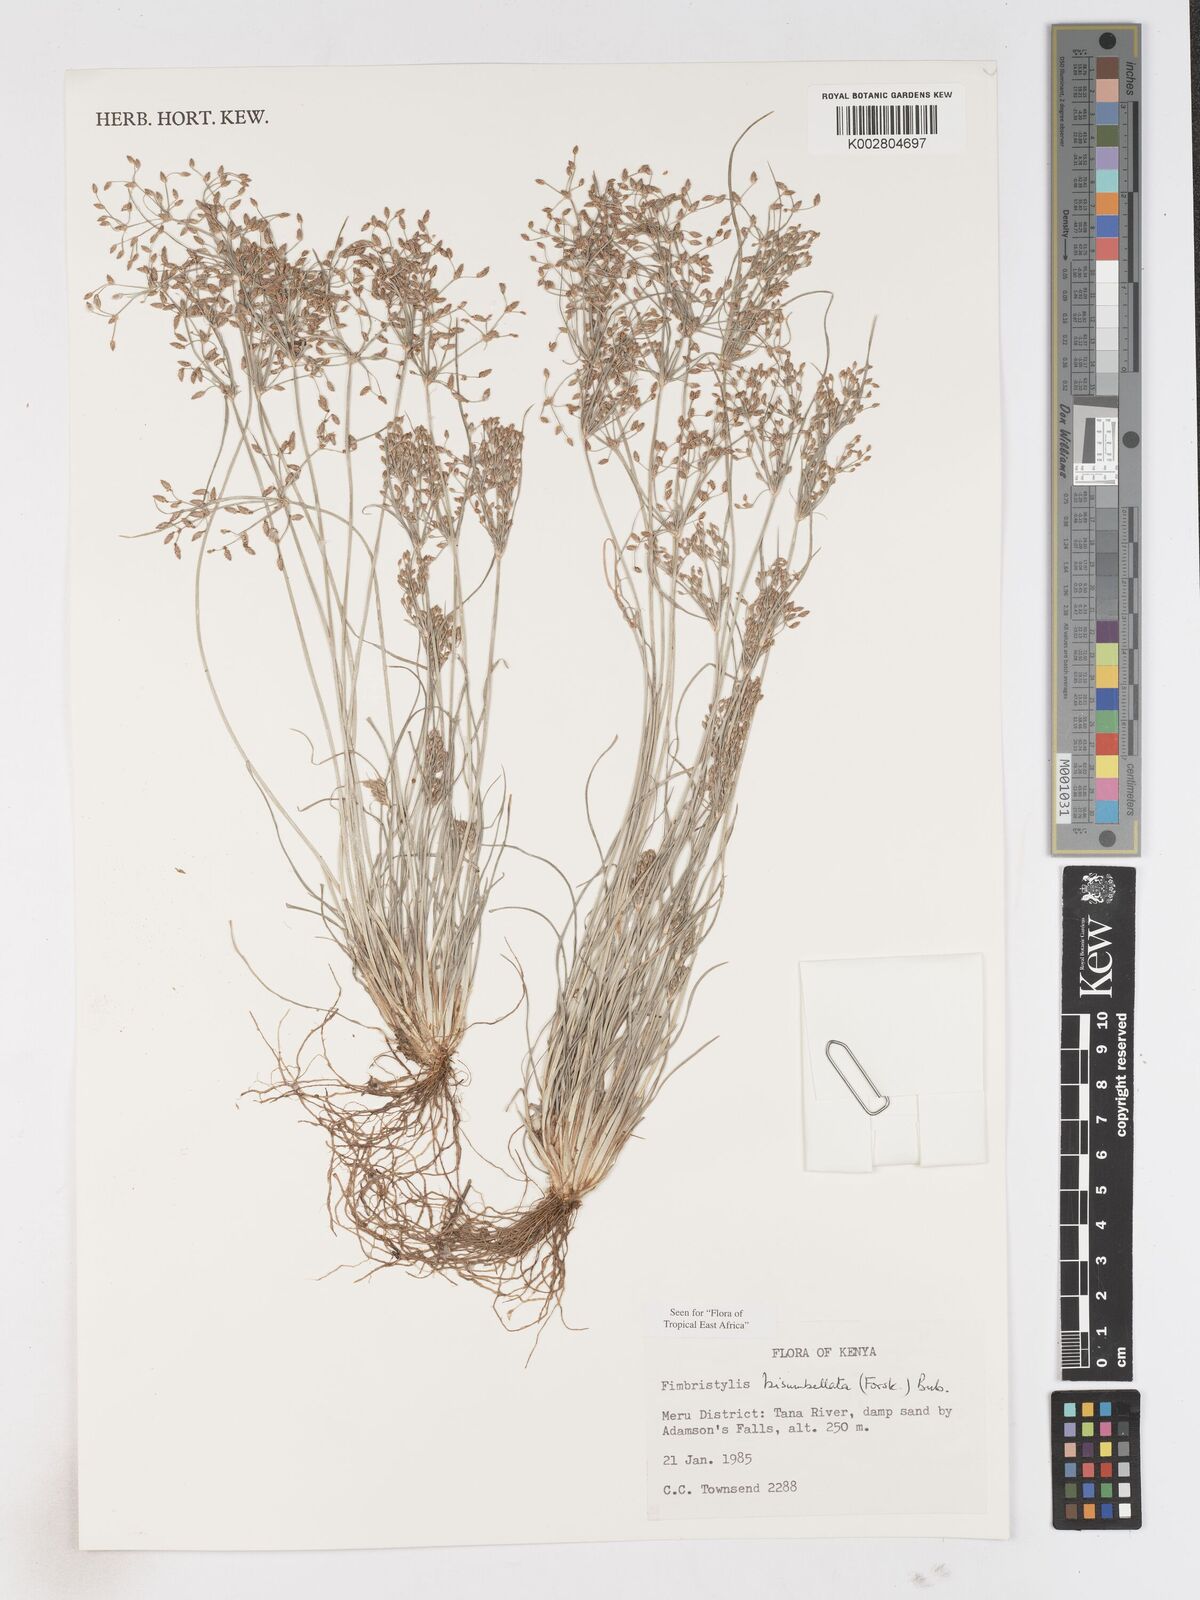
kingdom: Plantae
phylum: Tracheophyta
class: Liliopsida
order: Poales
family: Cyperaceae
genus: Fimbristylis
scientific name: Fimbristylis bisumbellata
